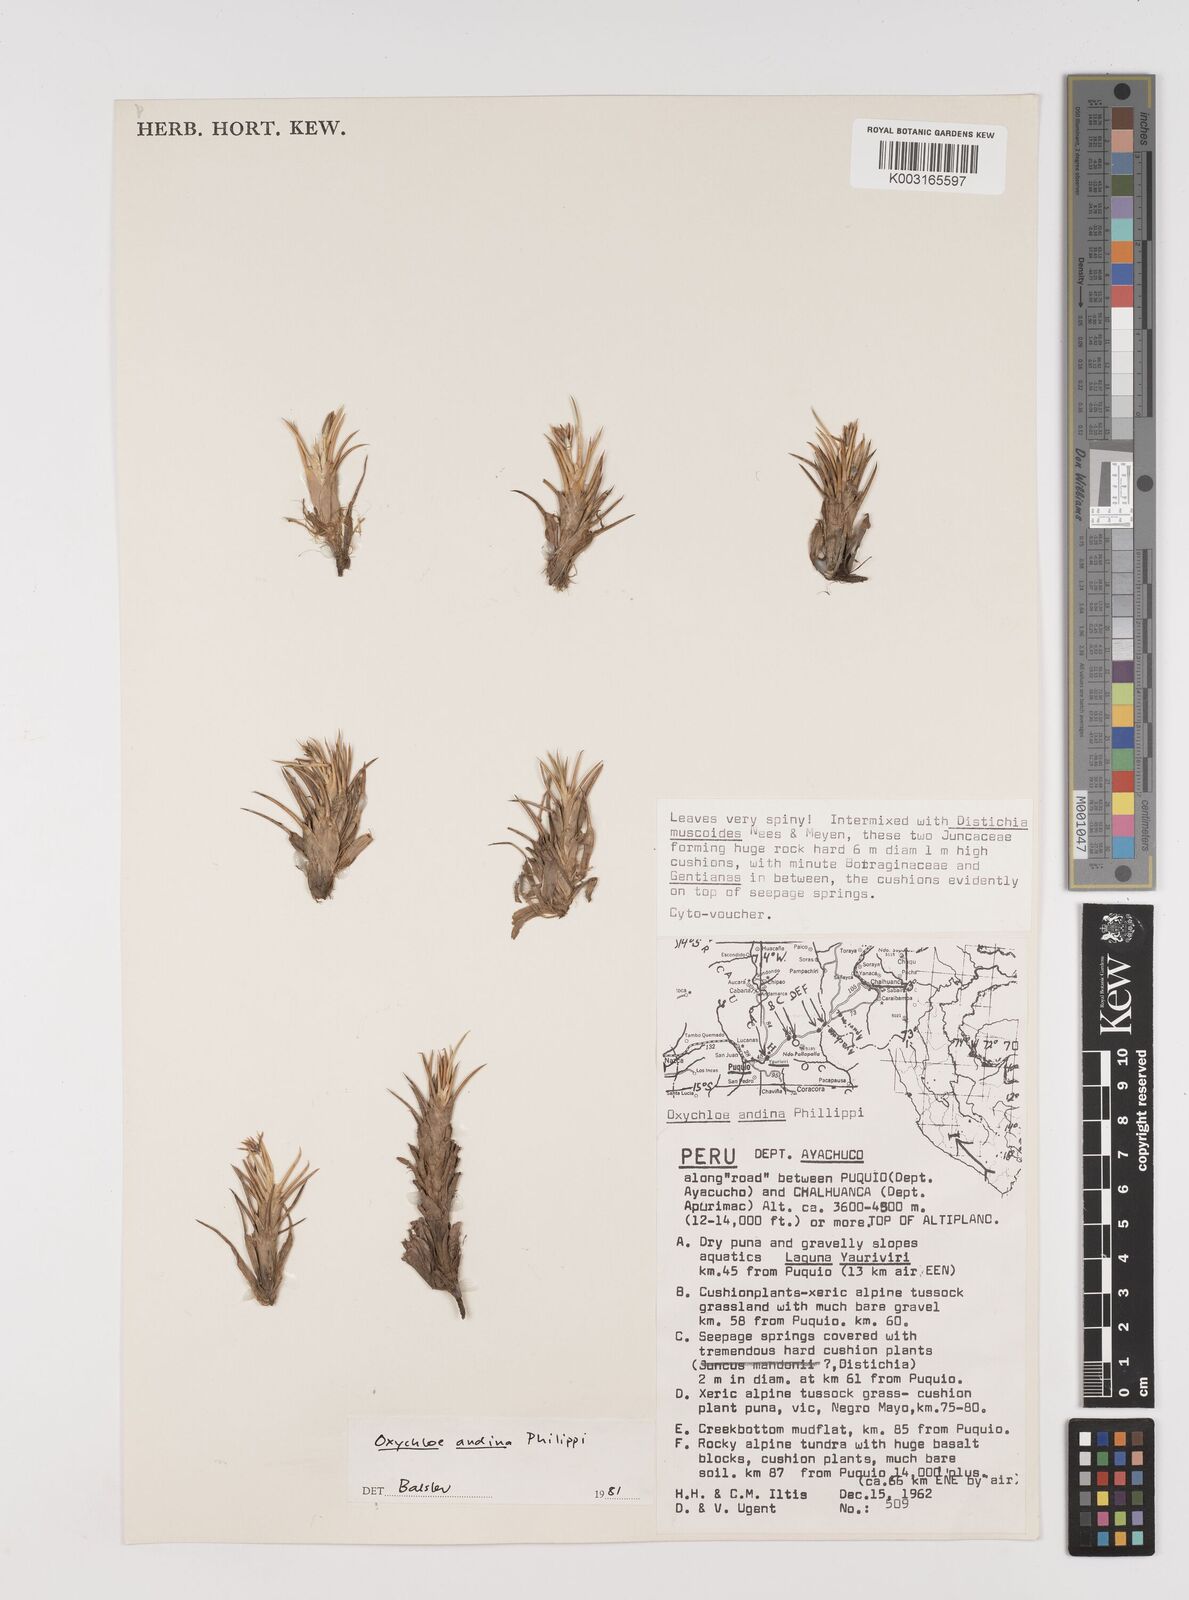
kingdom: Plantae
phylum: Tracheophyta
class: Liliopsida
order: Poales
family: Juncaceae
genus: Oxychloe
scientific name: Oxychloe andina
